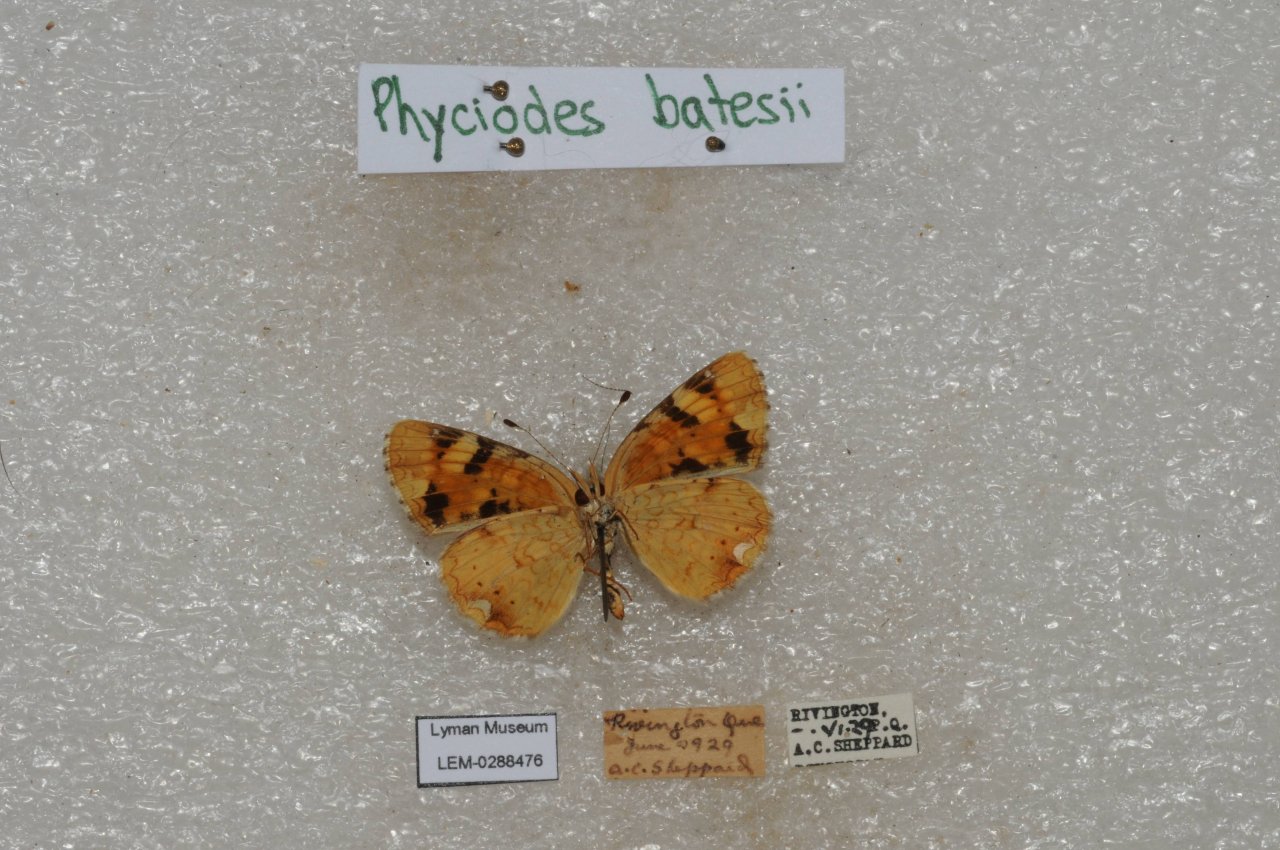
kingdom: Animalia
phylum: Arthropoda
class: Insecta
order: Lepidoptera
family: Nymphalidae
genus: Phyciodes
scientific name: Phyciodes batesii
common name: Tawny Crescent
